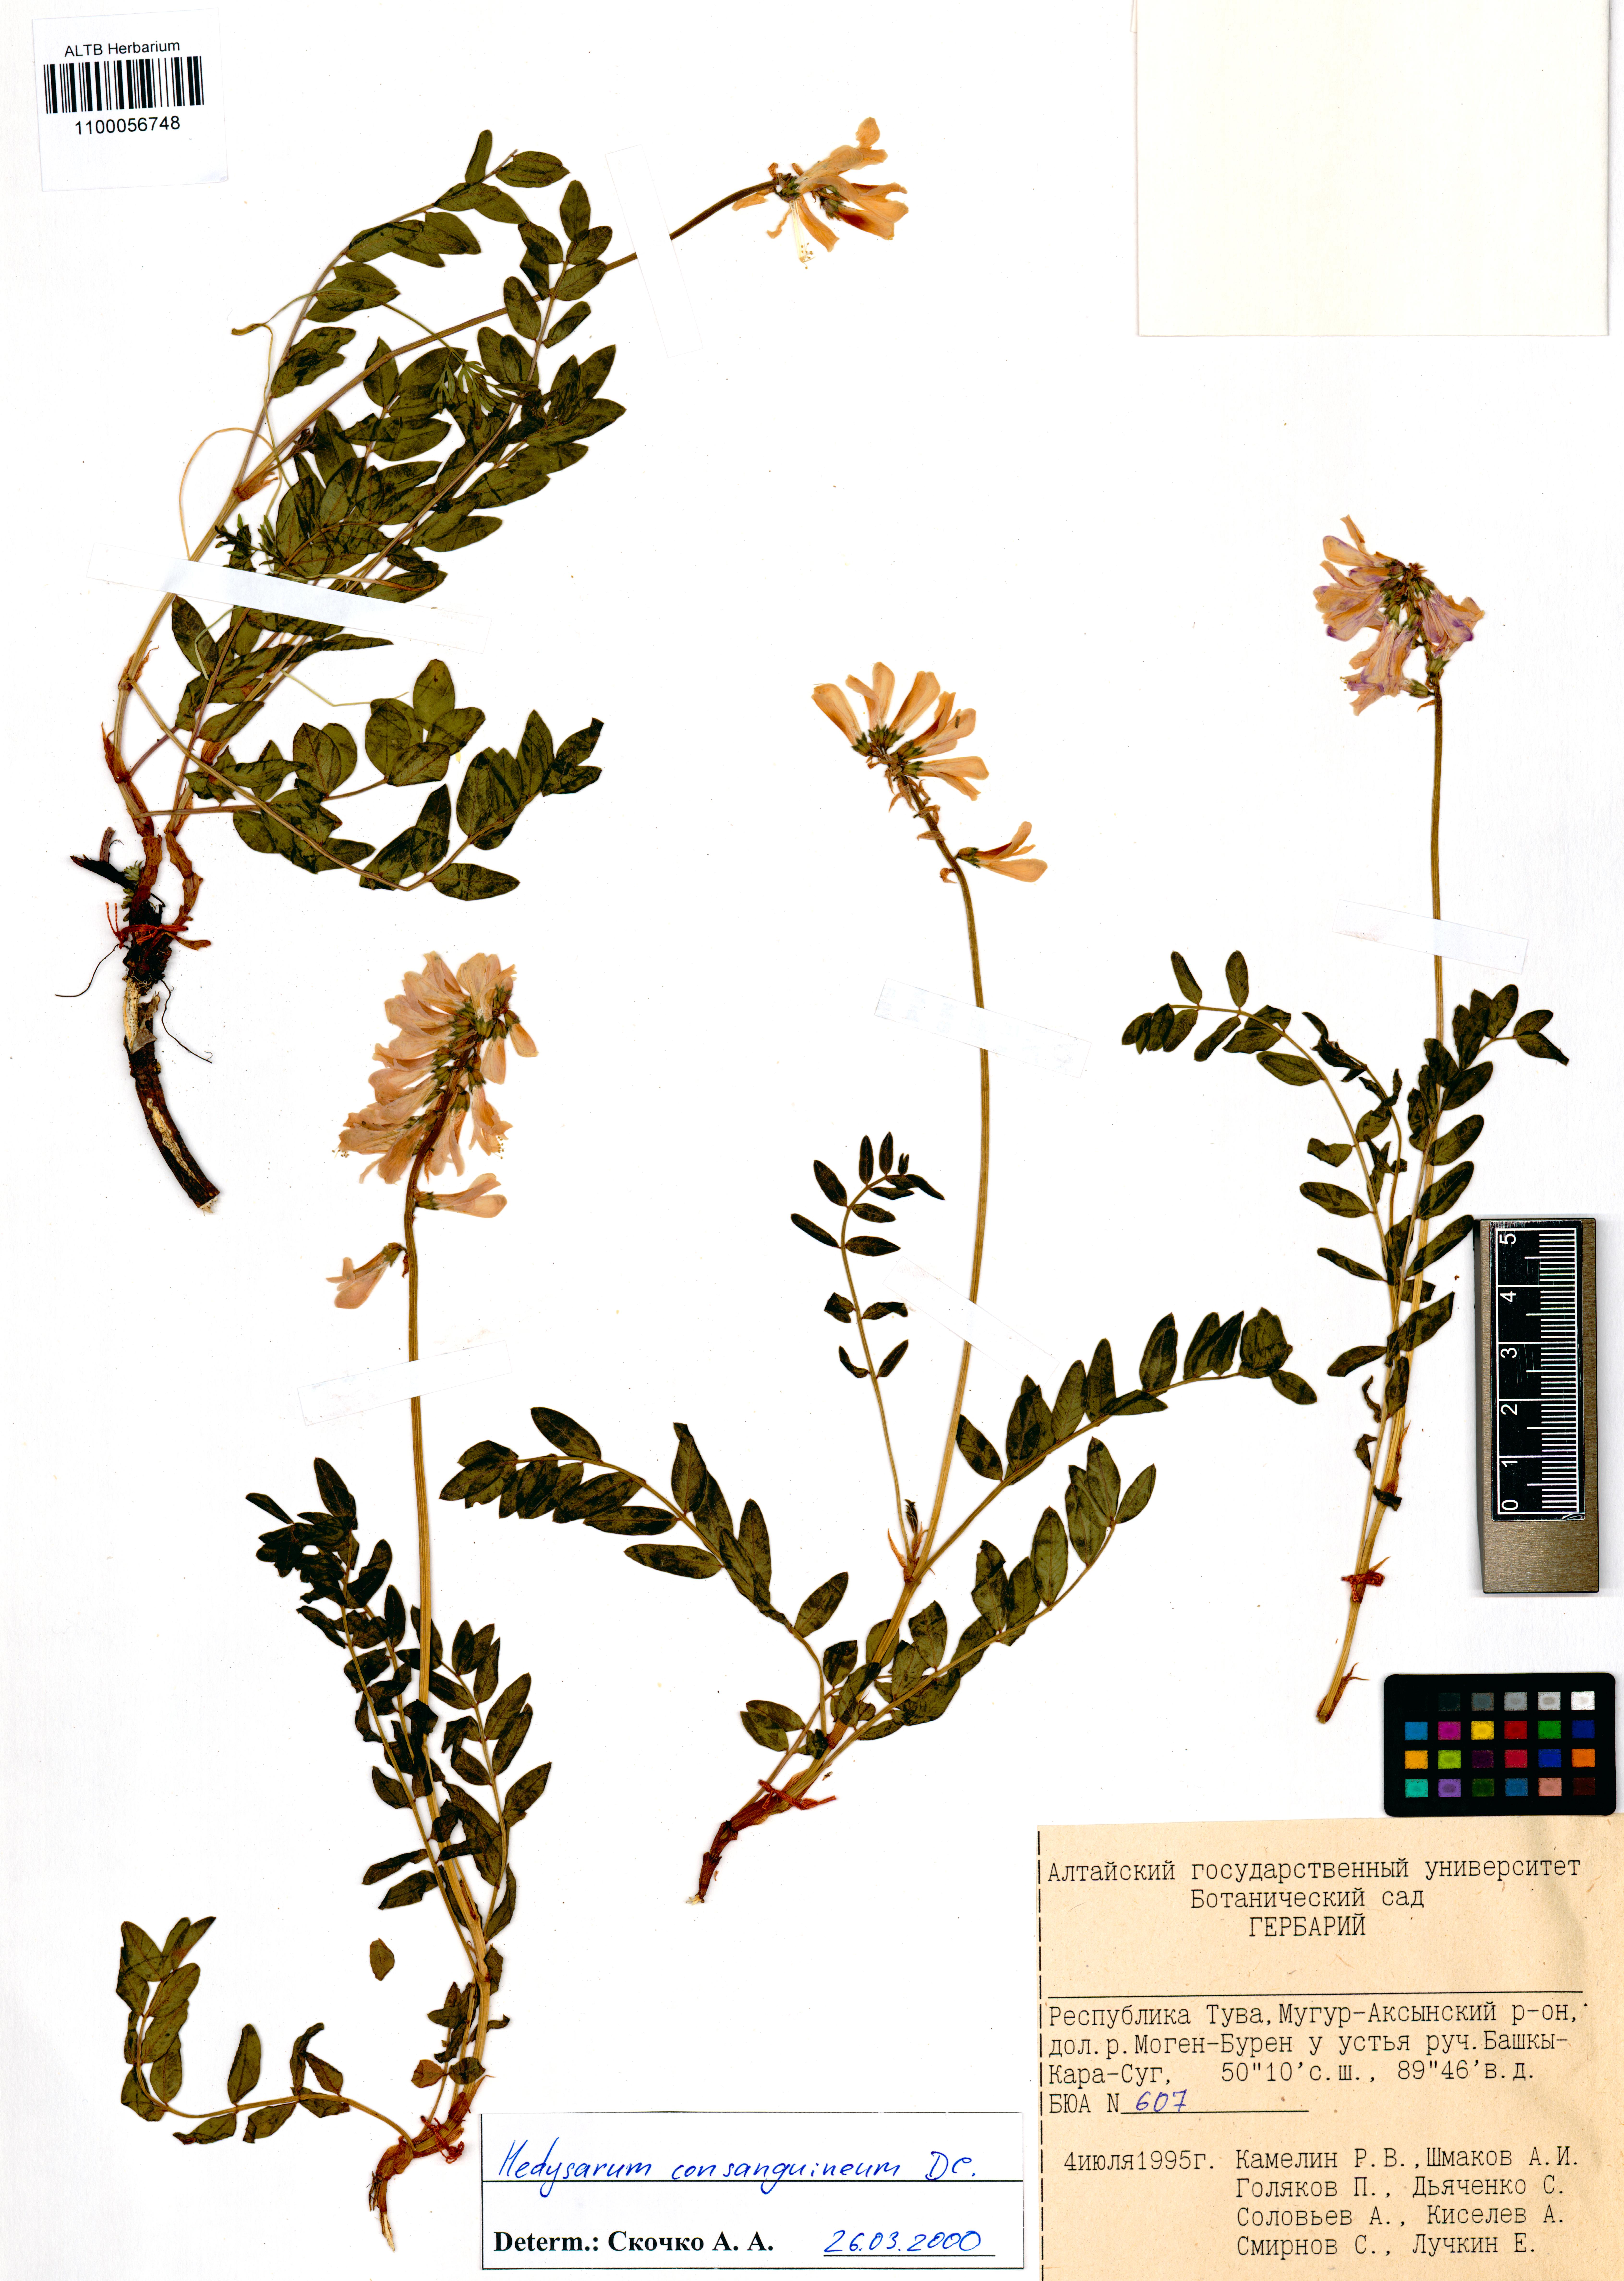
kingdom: Plantae
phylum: Tracheophyta
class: Magnoliopsida
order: Fabales
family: Fabaceae
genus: Hedysarum
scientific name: Hedysarum consanguineum
